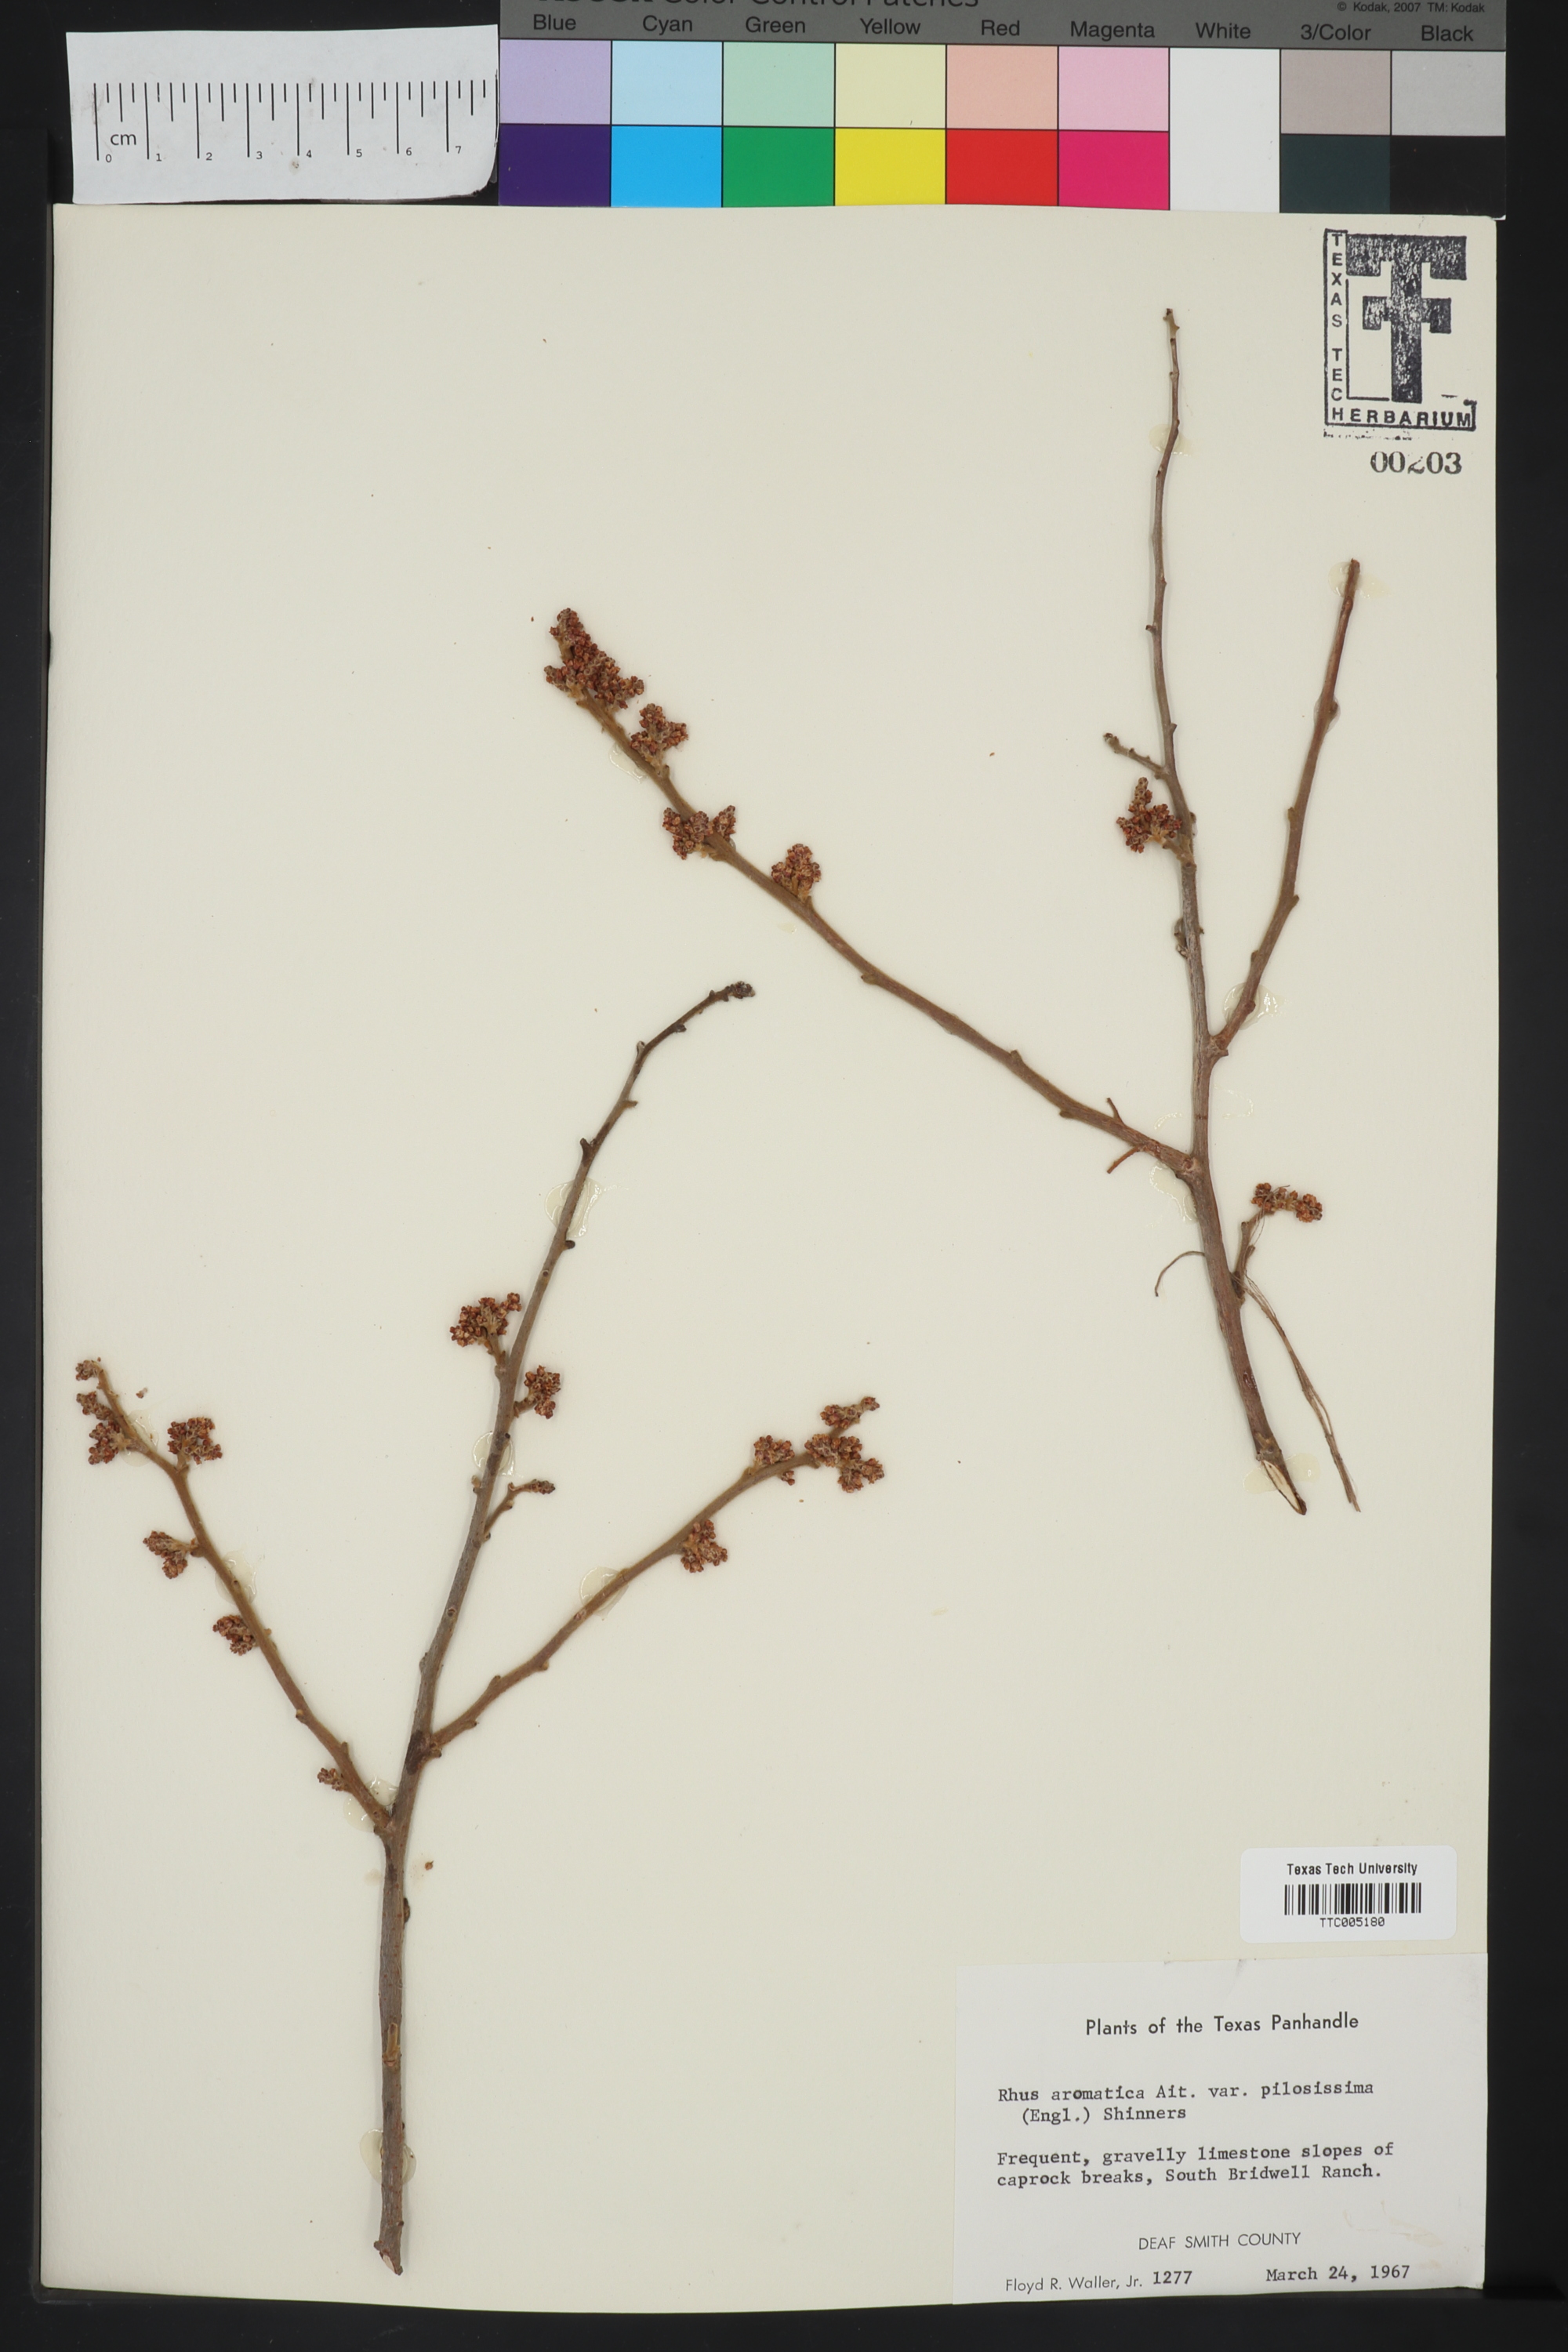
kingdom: Plantae
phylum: Tracheophyta
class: Magnoliopsida
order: Sapindales
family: Anacardiaceae
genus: Rhus
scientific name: Rhus trilobata
